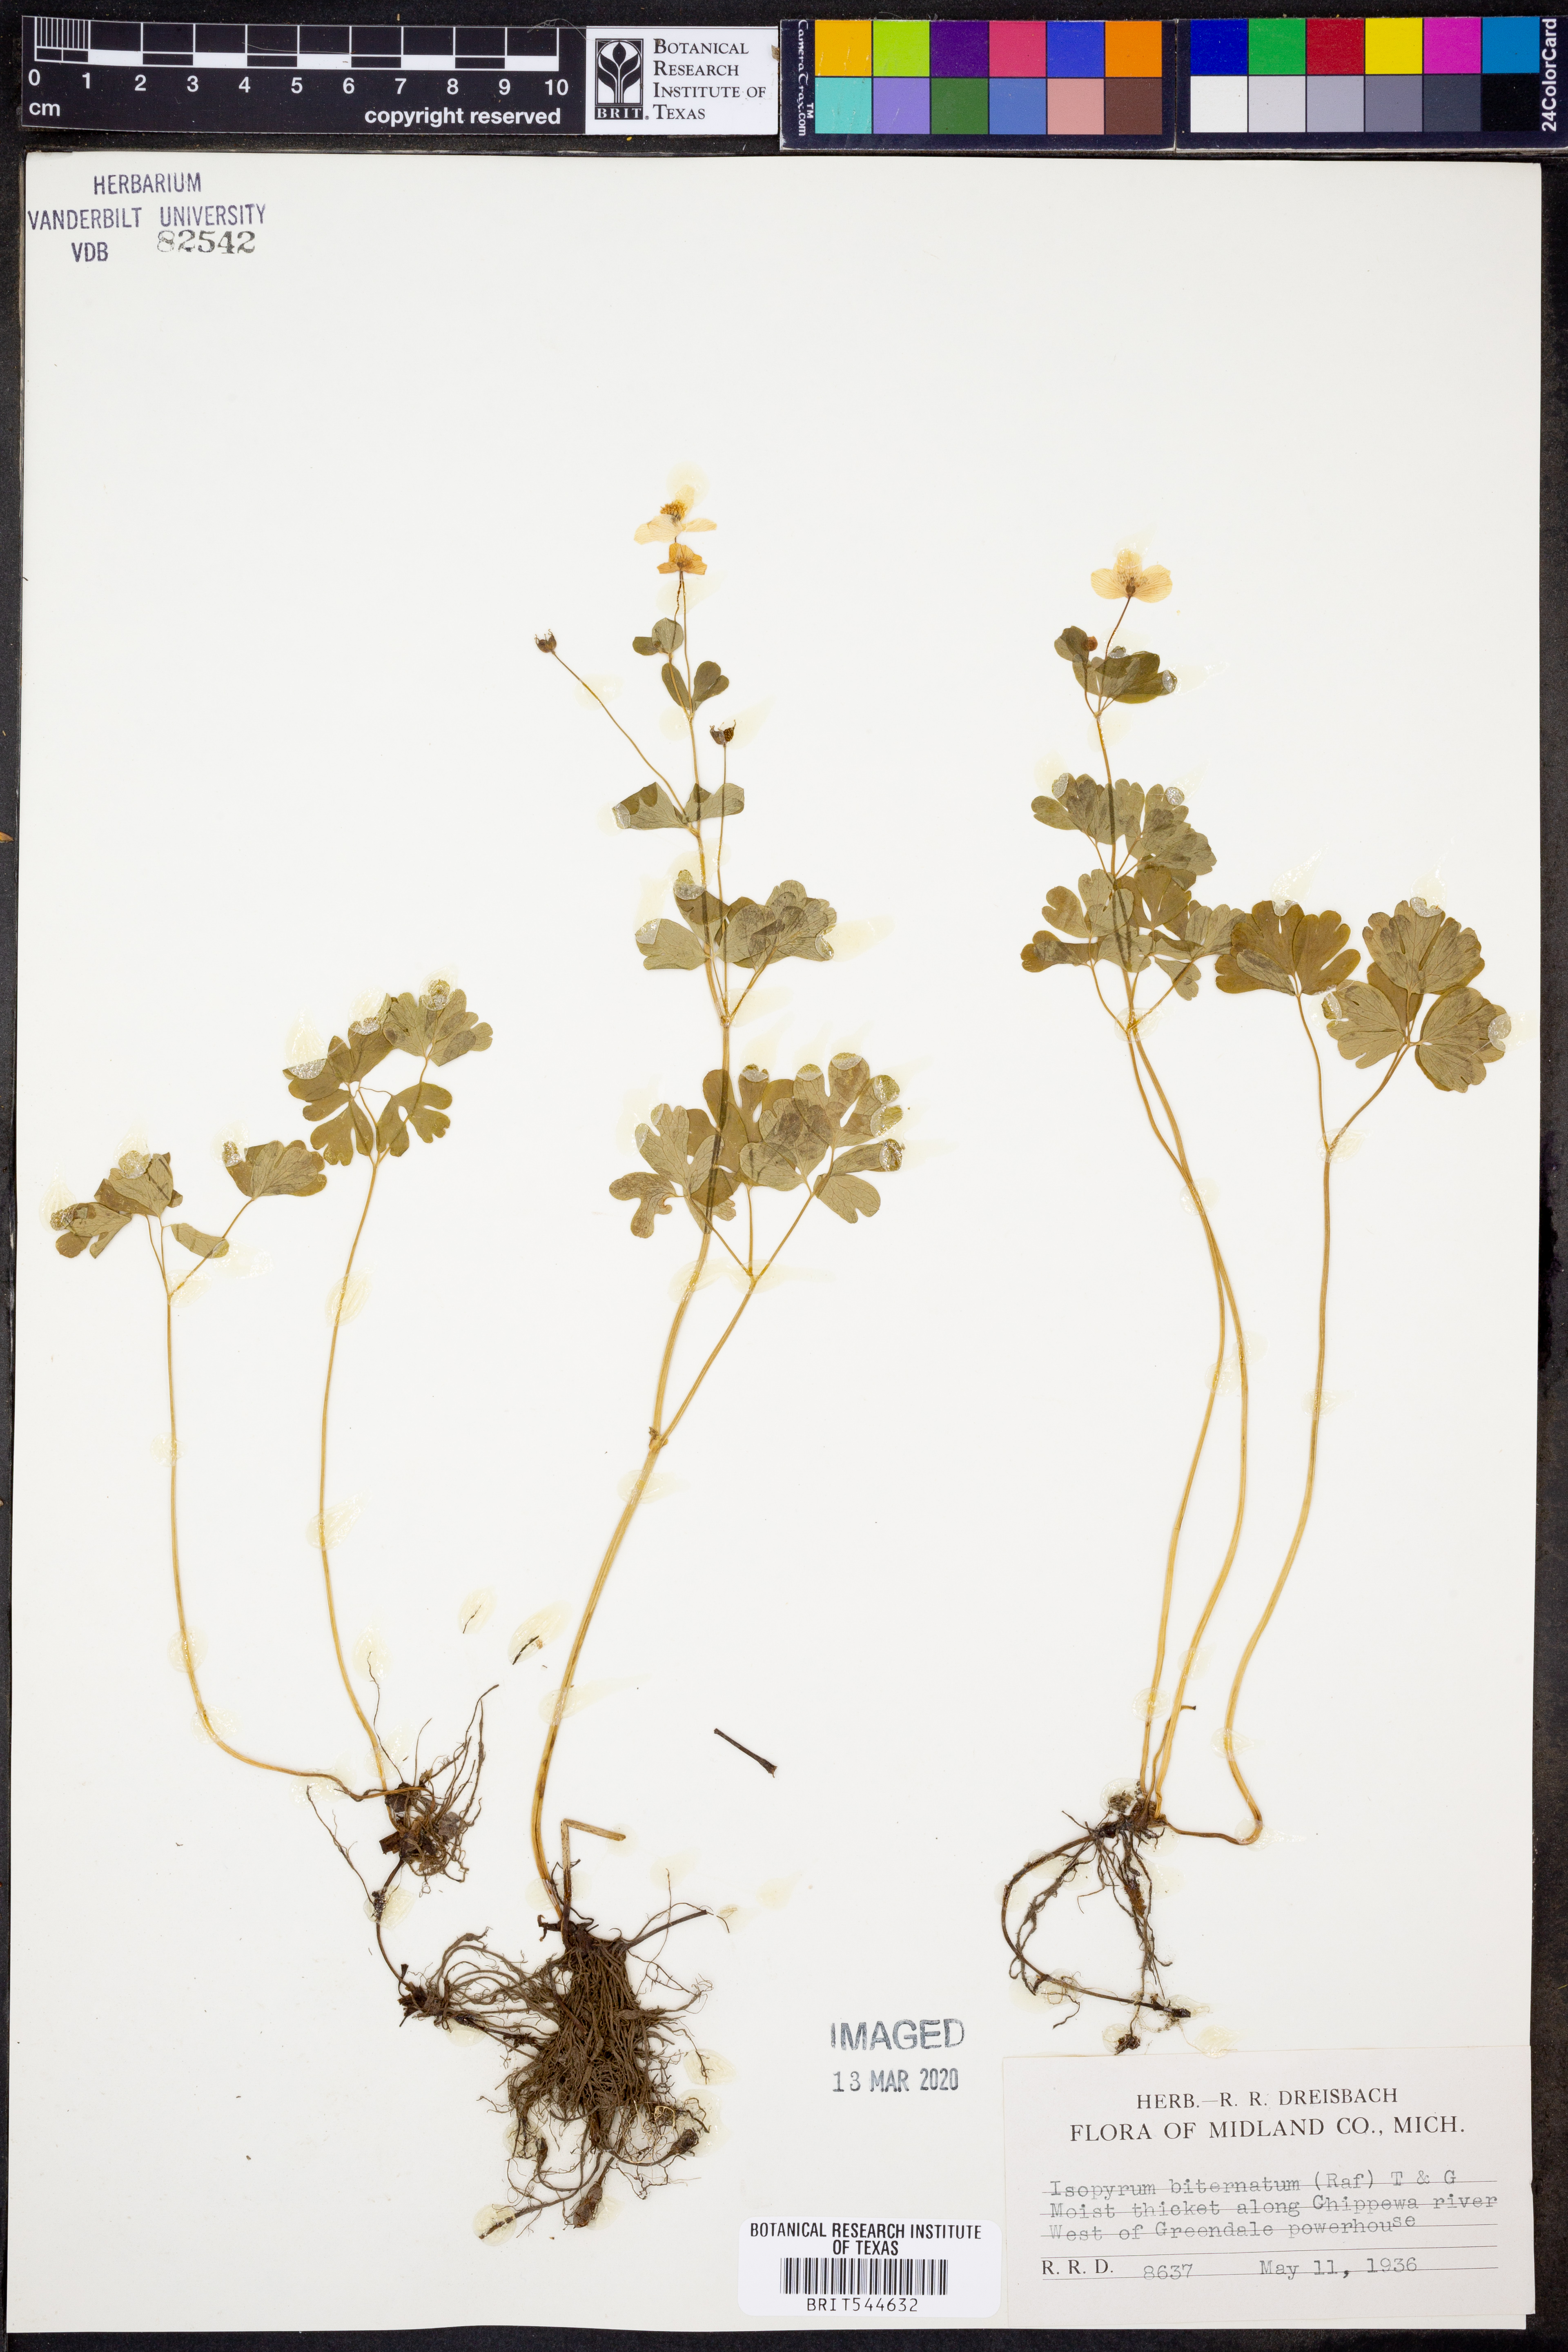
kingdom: Plantae
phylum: Tracheophyta
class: Magnoliopsida
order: Ranunculales
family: Ranunculaceae
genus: Enemion
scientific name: Enemion biternatum
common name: Eastern false rue-anemone
